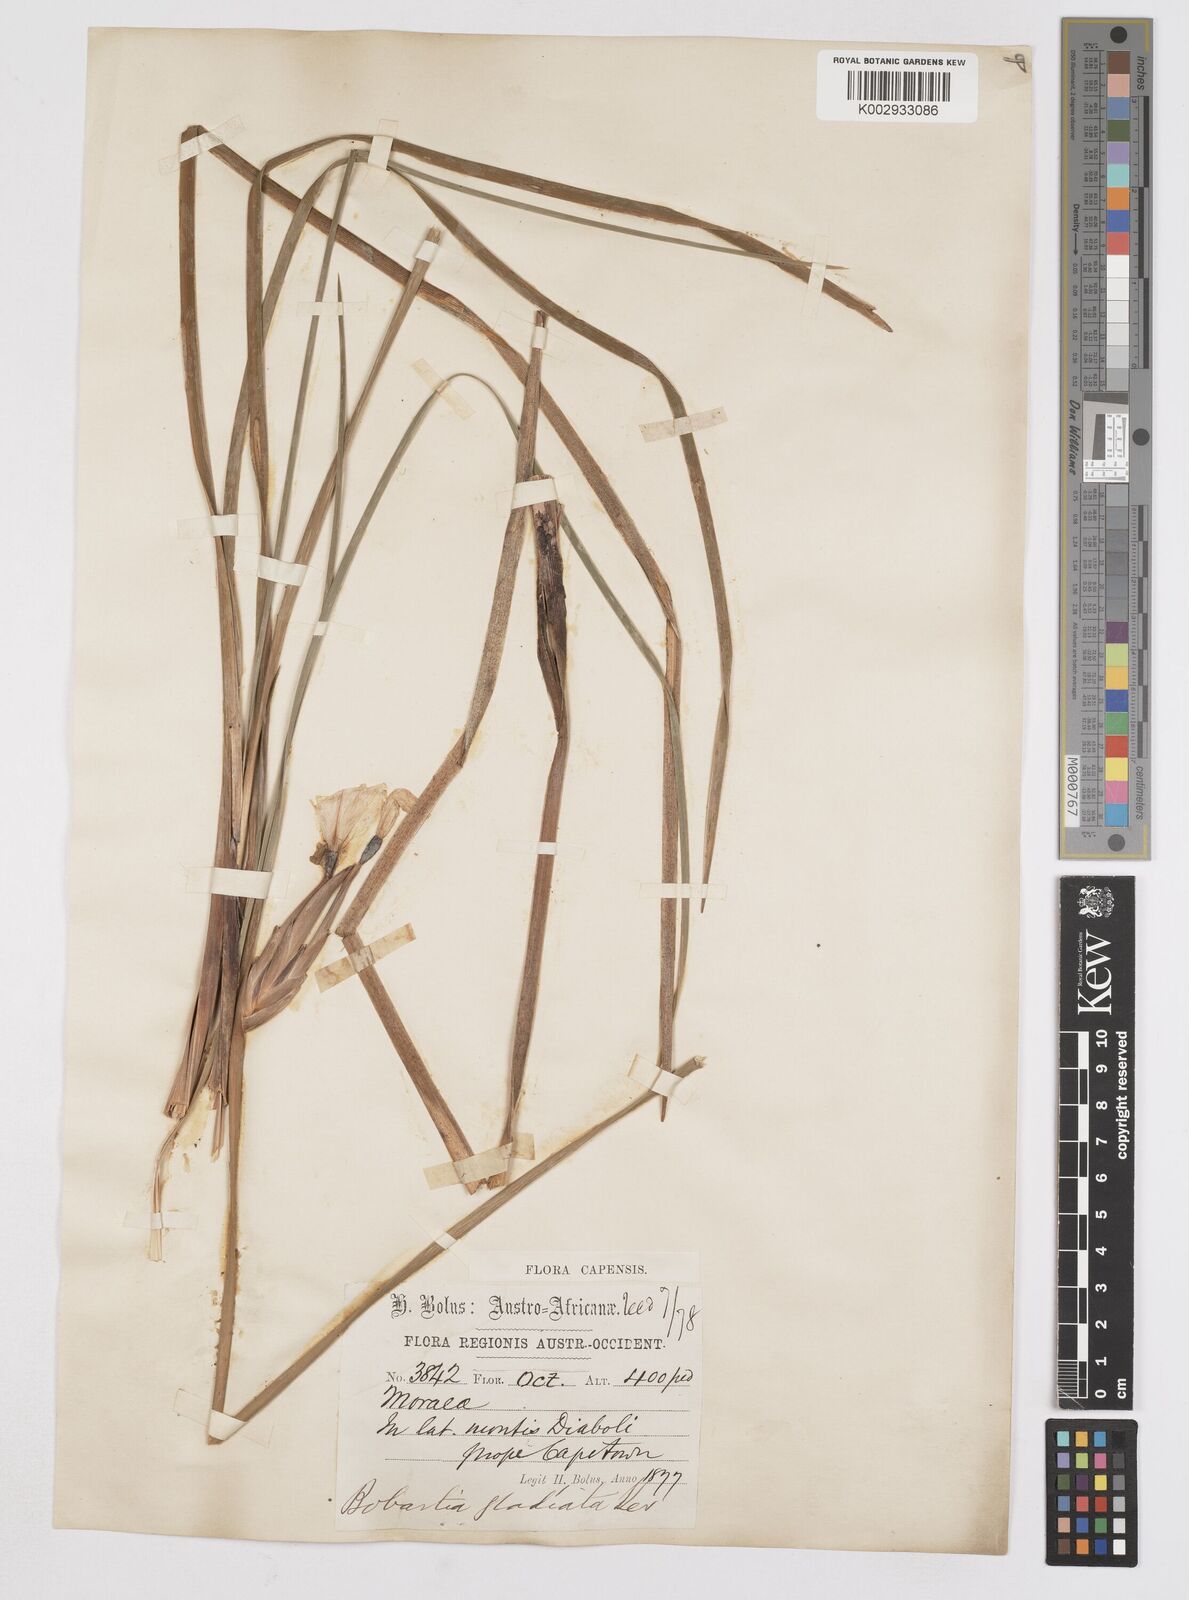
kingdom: Plantae
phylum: Tracheophyta
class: Liliopsida
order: Asparagales
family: Iridaceae
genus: Bobartia
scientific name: Bobartia gladiata
